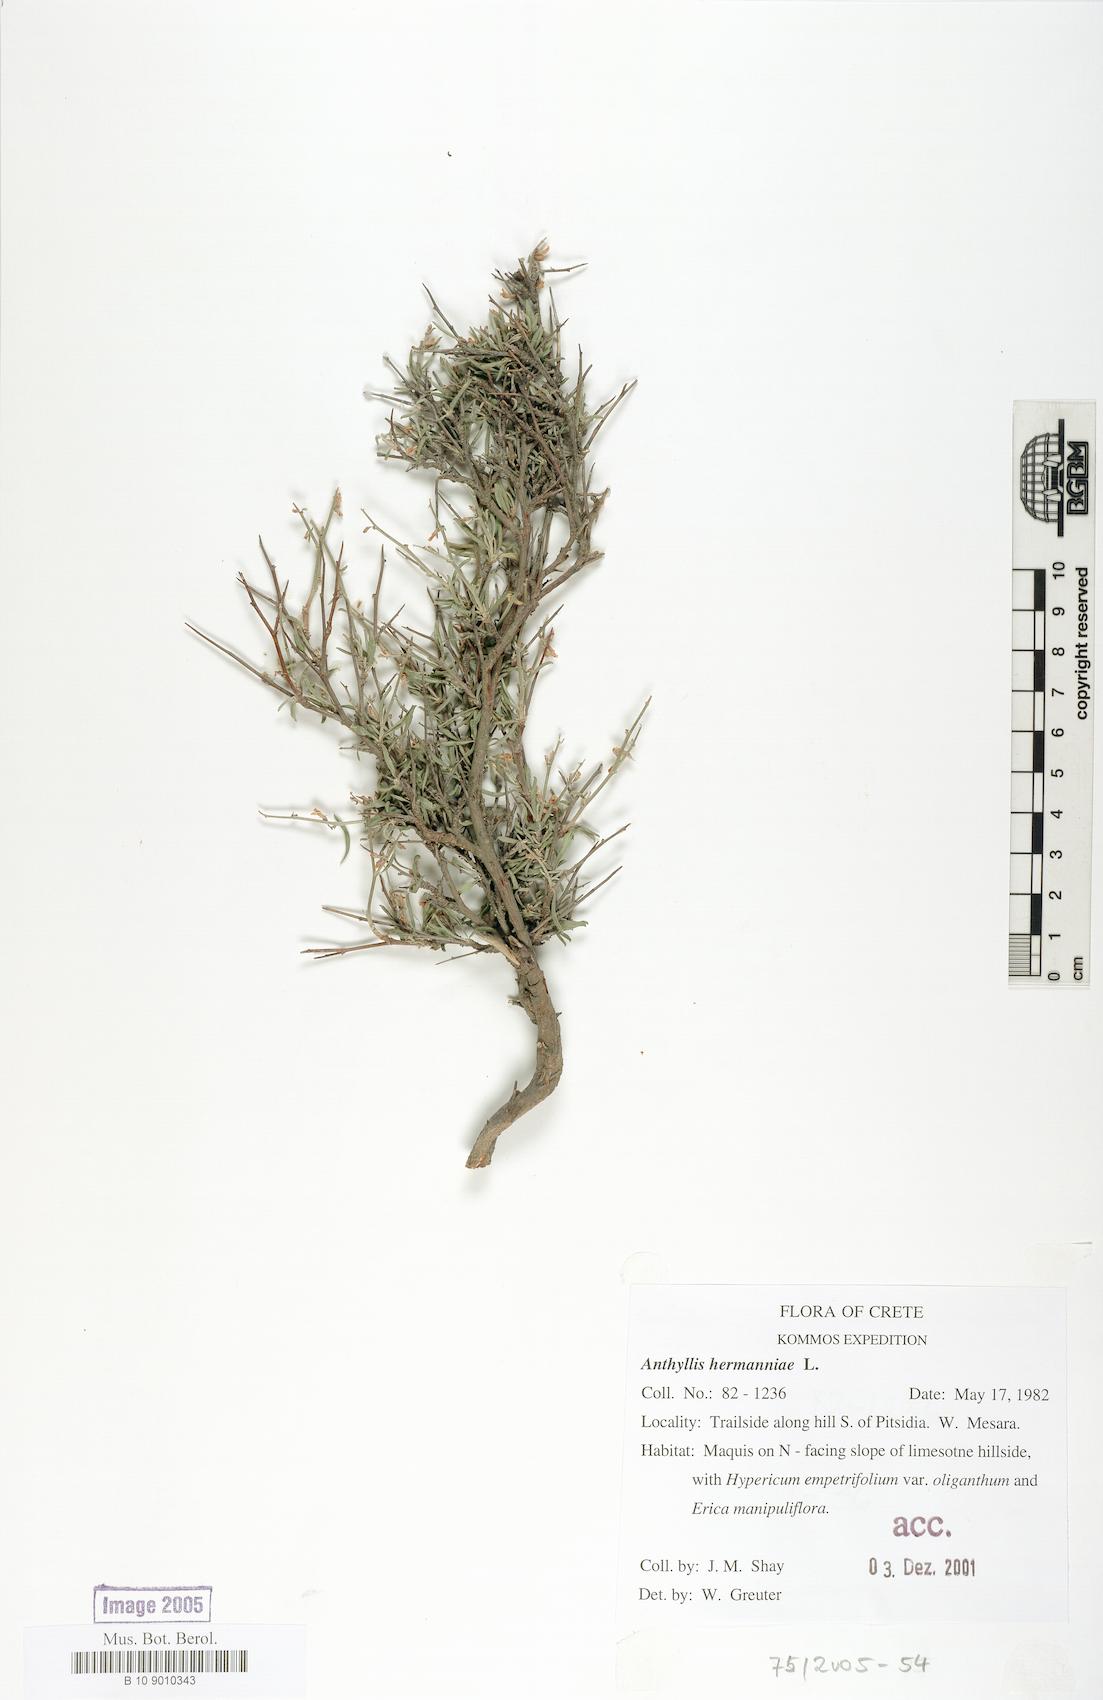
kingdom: Plantae
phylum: Tracheophyta
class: Magnoliopsida
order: Fabales
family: Fabaceae
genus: Anthyllis
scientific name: Anthyllis hermanniae
